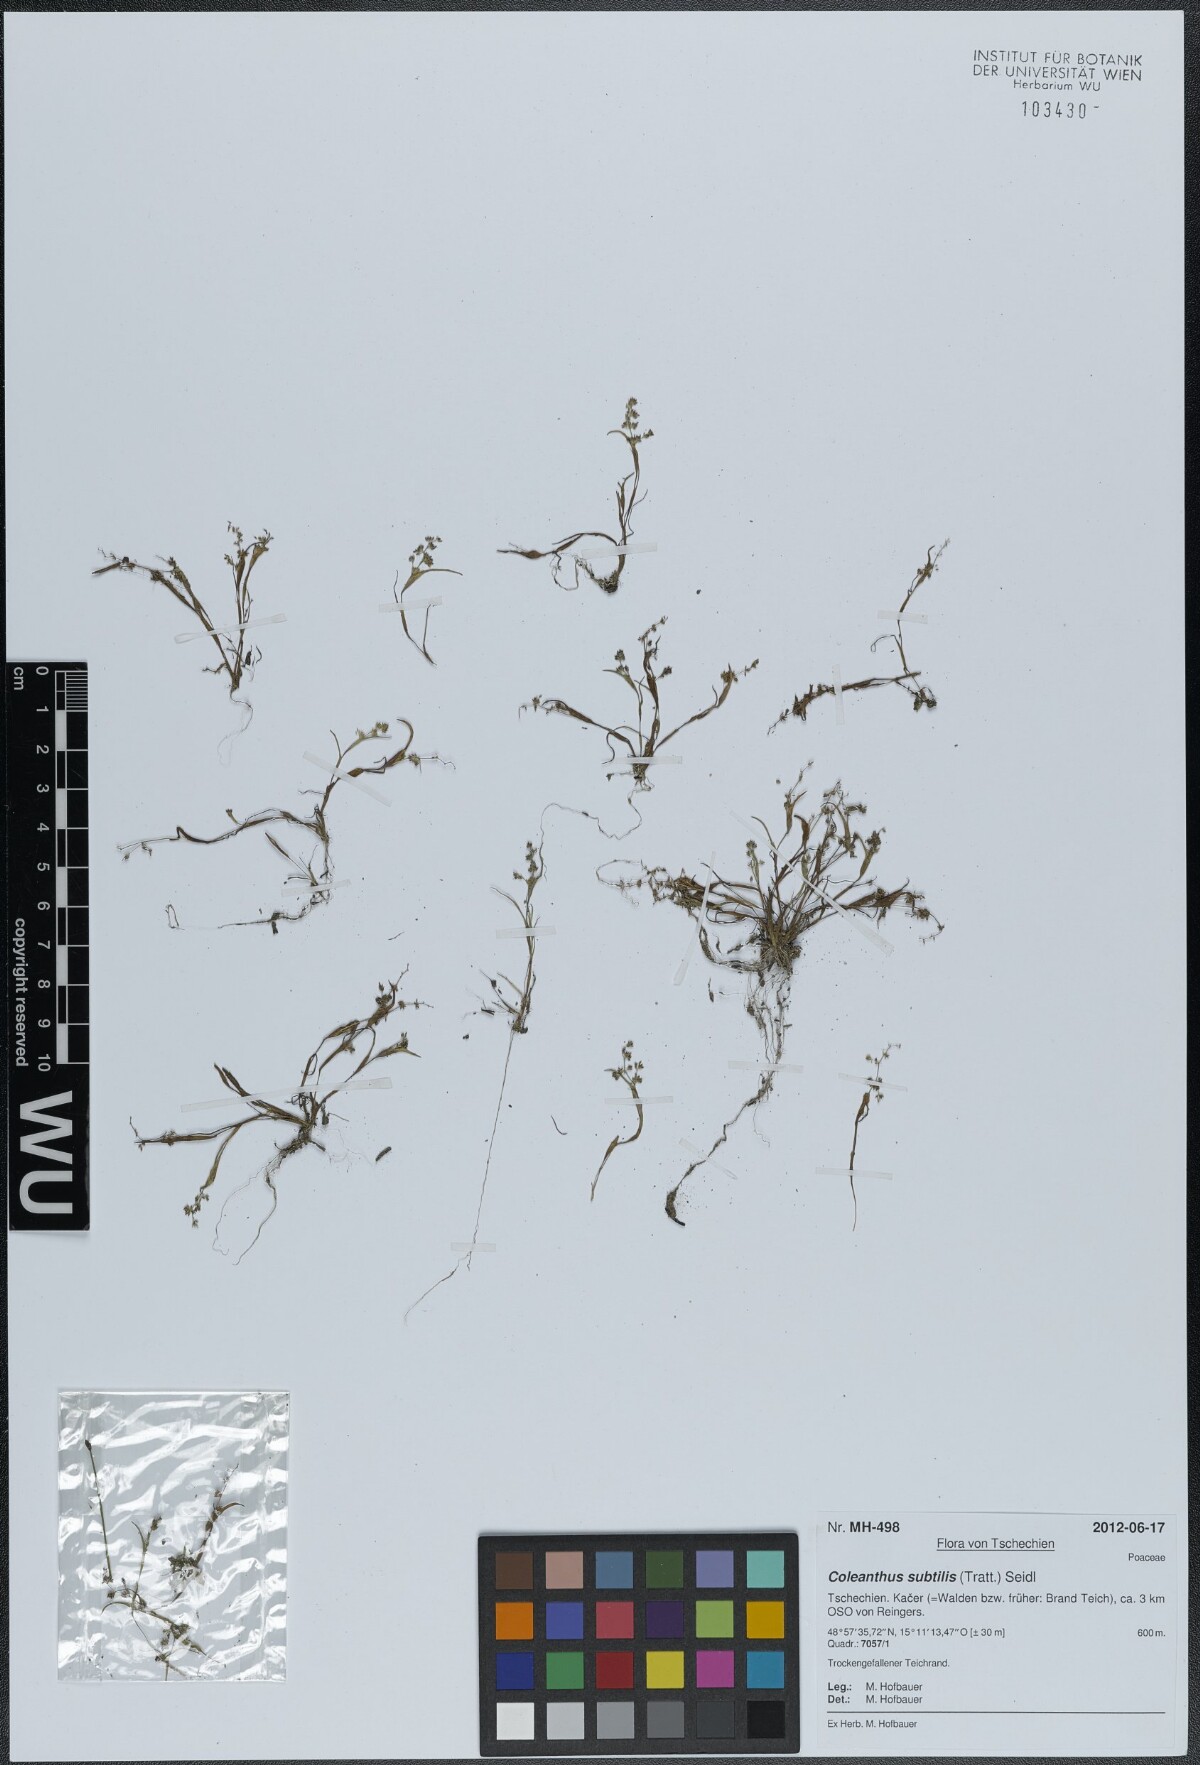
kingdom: Plantae
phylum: Tracheophyta
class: Liliopsida
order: Poales
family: Poaceae
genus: Coleanthus
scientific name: Coleanthus subtilis
